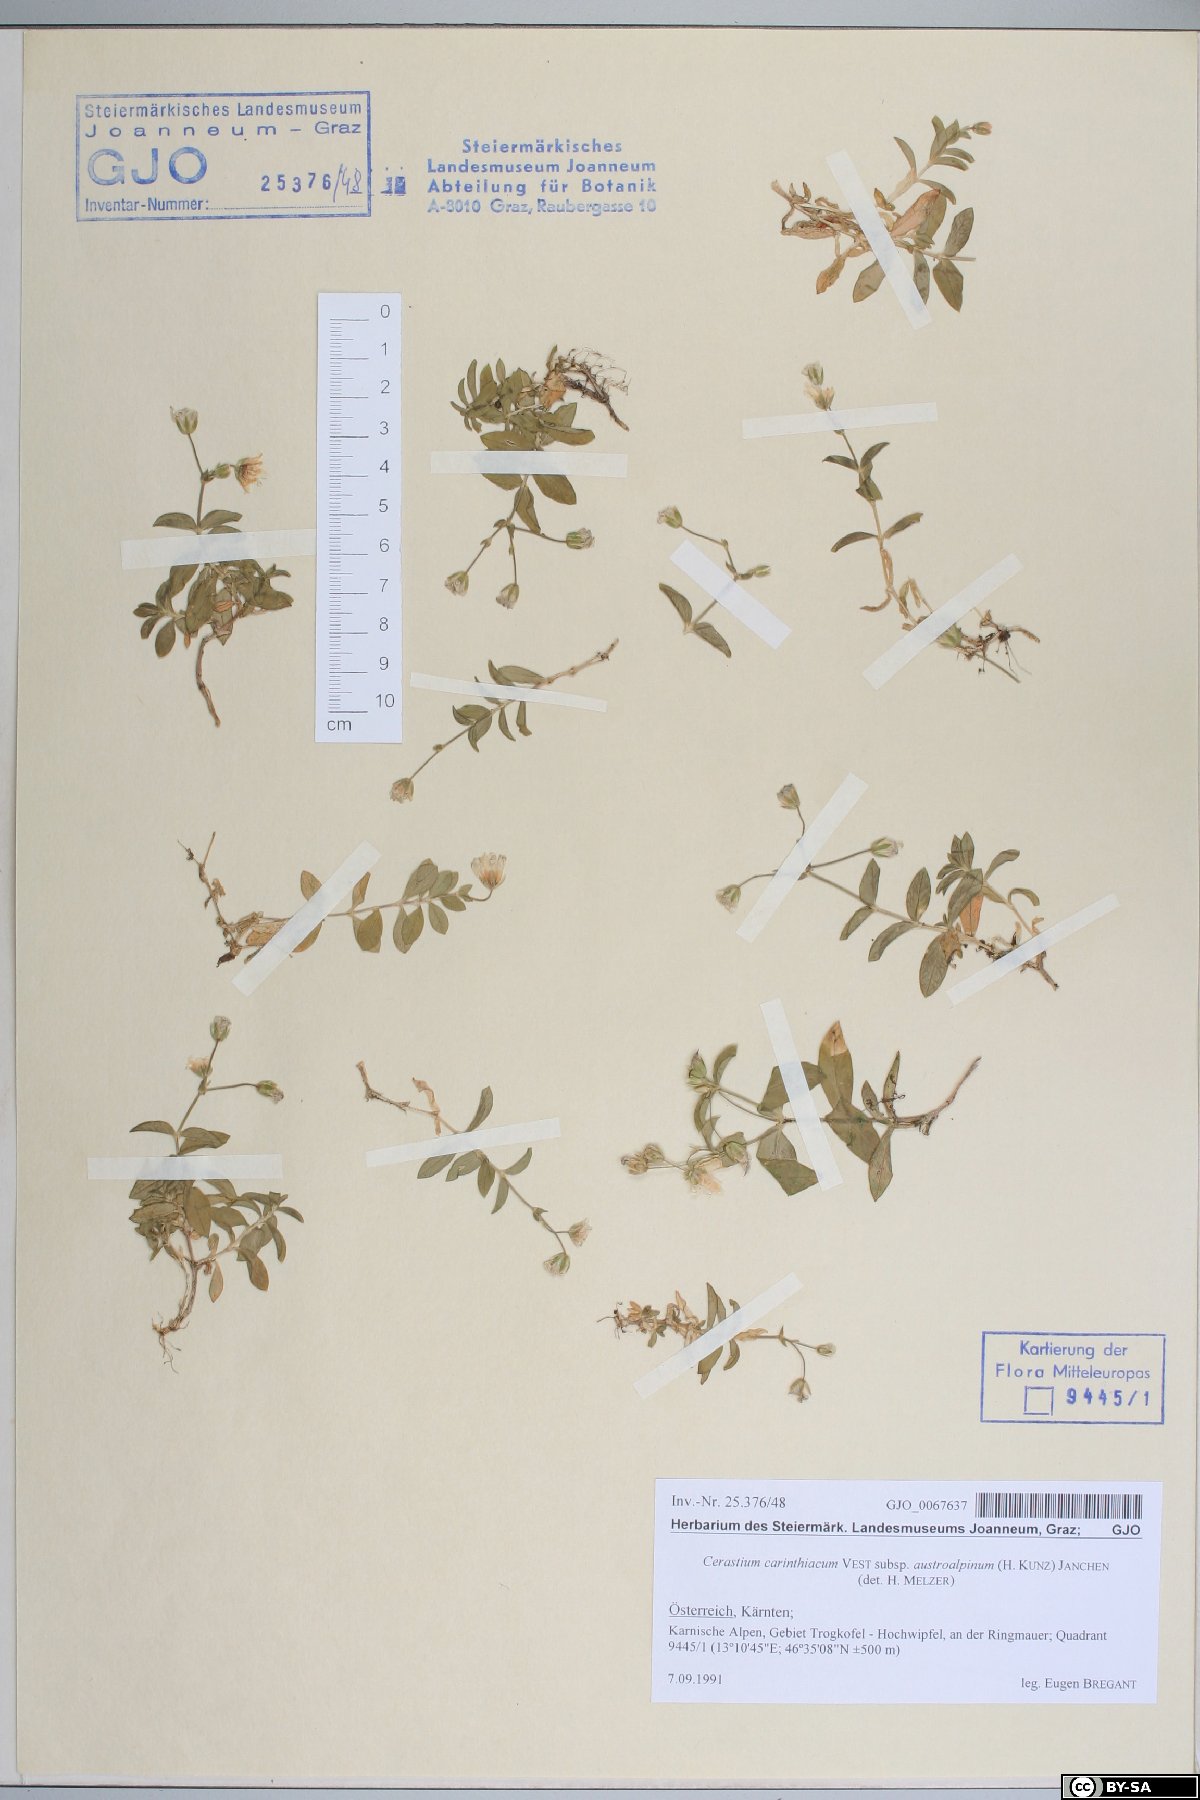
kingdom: Plantae
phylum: Tracheophyta
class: Magnoliopsida
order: Caryophyllales
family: Caryophyllaceae
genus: Cerastium
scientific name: Cerastium carinthiacum
